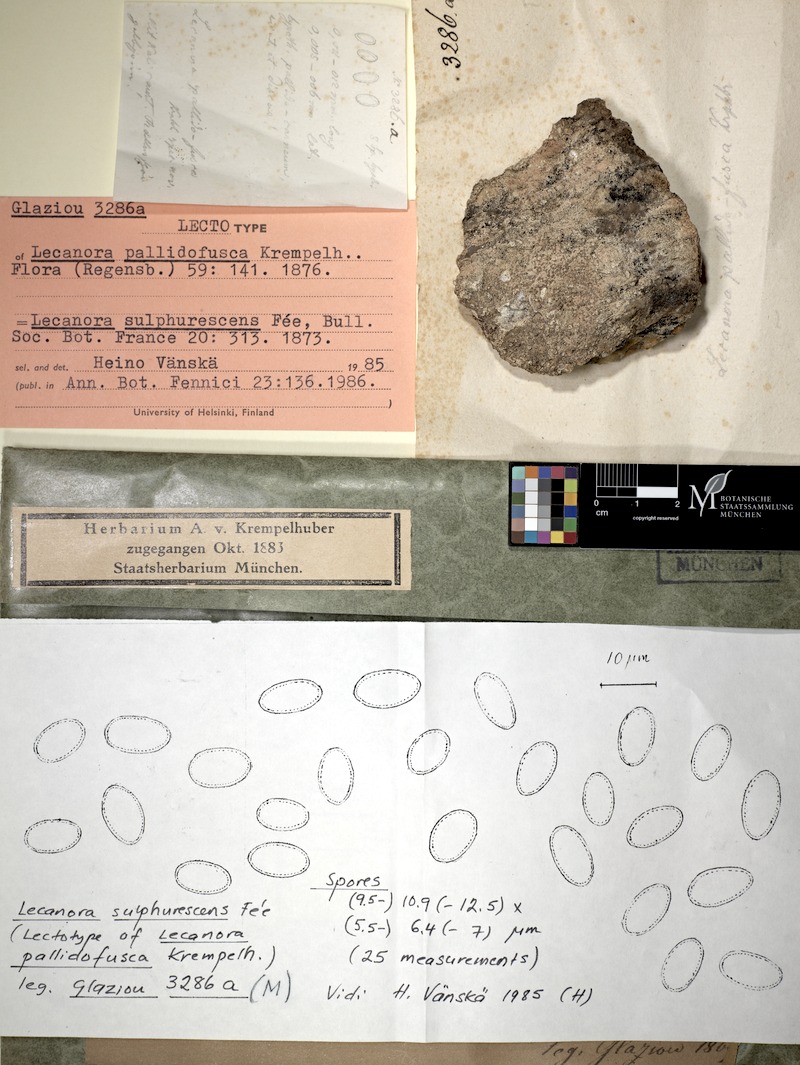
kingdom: Fungi
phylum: Ascomycota
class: Lecanoromycetes
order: Lecanorales
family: Lecanoraceae
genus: Lecanora
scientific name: Lecanora sulphurescens
